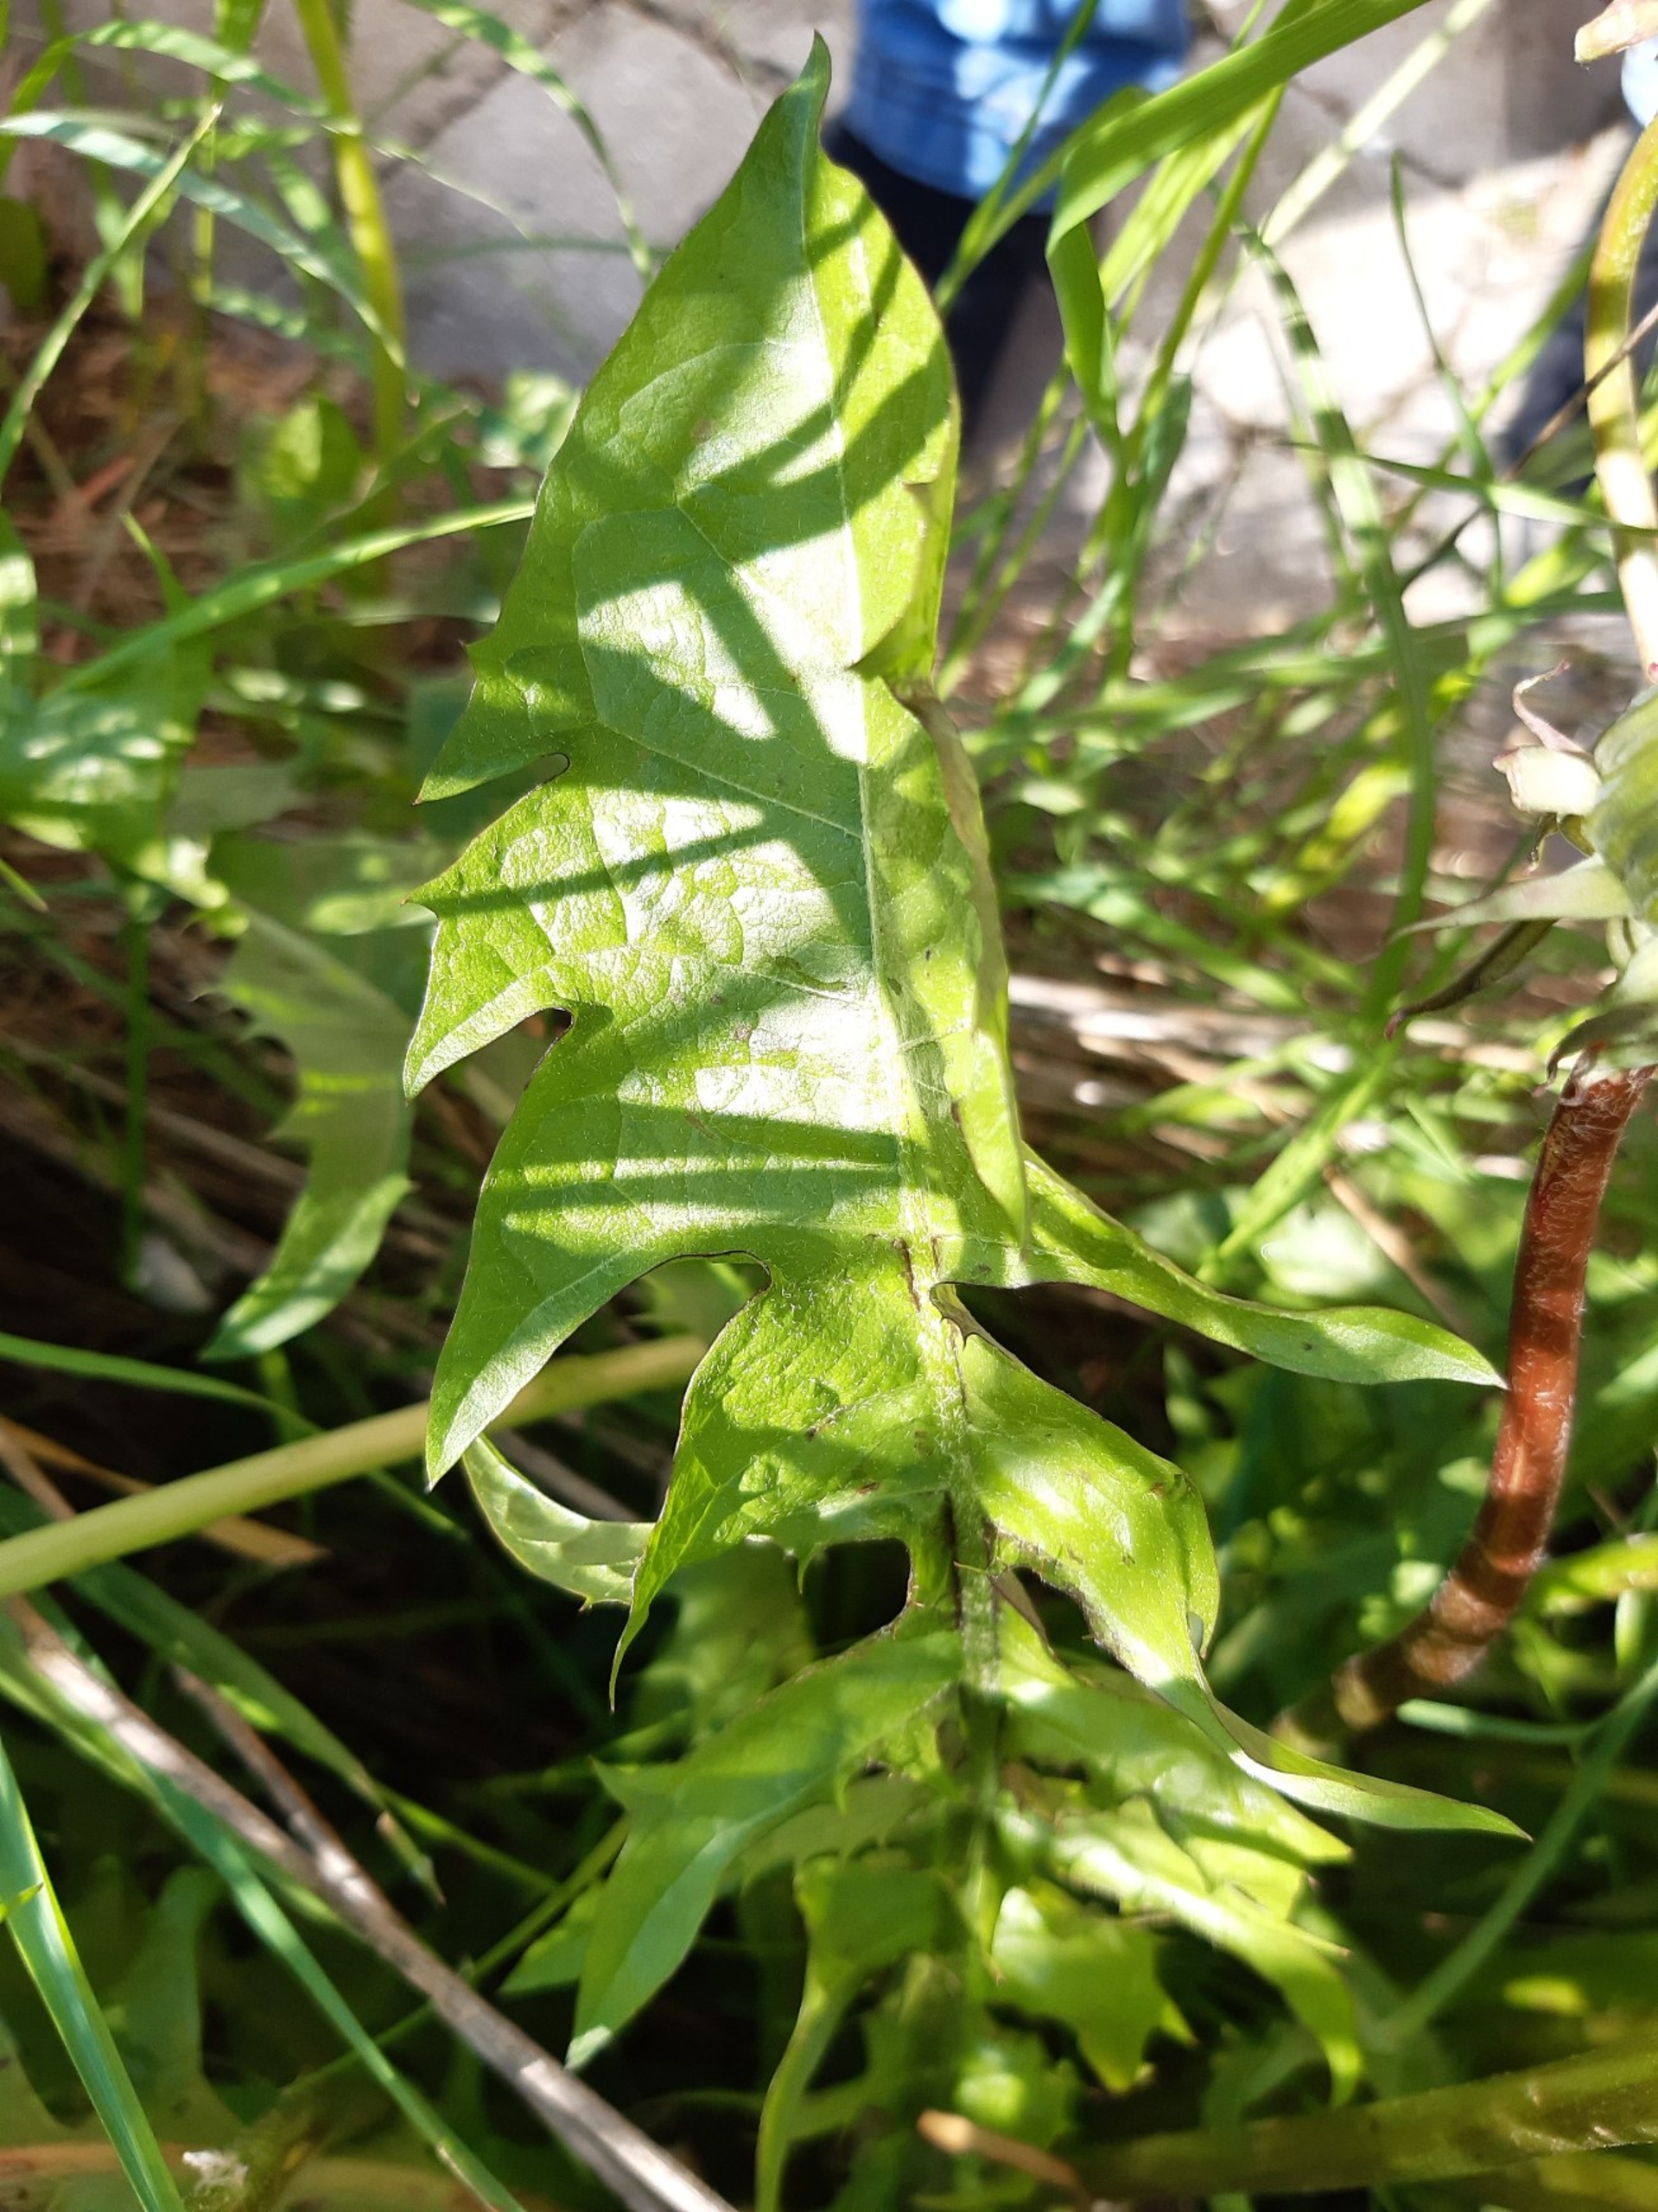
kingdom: Plantae
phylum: Tracheophyta
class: Magnoliopsida
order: Asterales
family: Asteraceae
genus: Taraxacum
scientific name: Taraxacum
